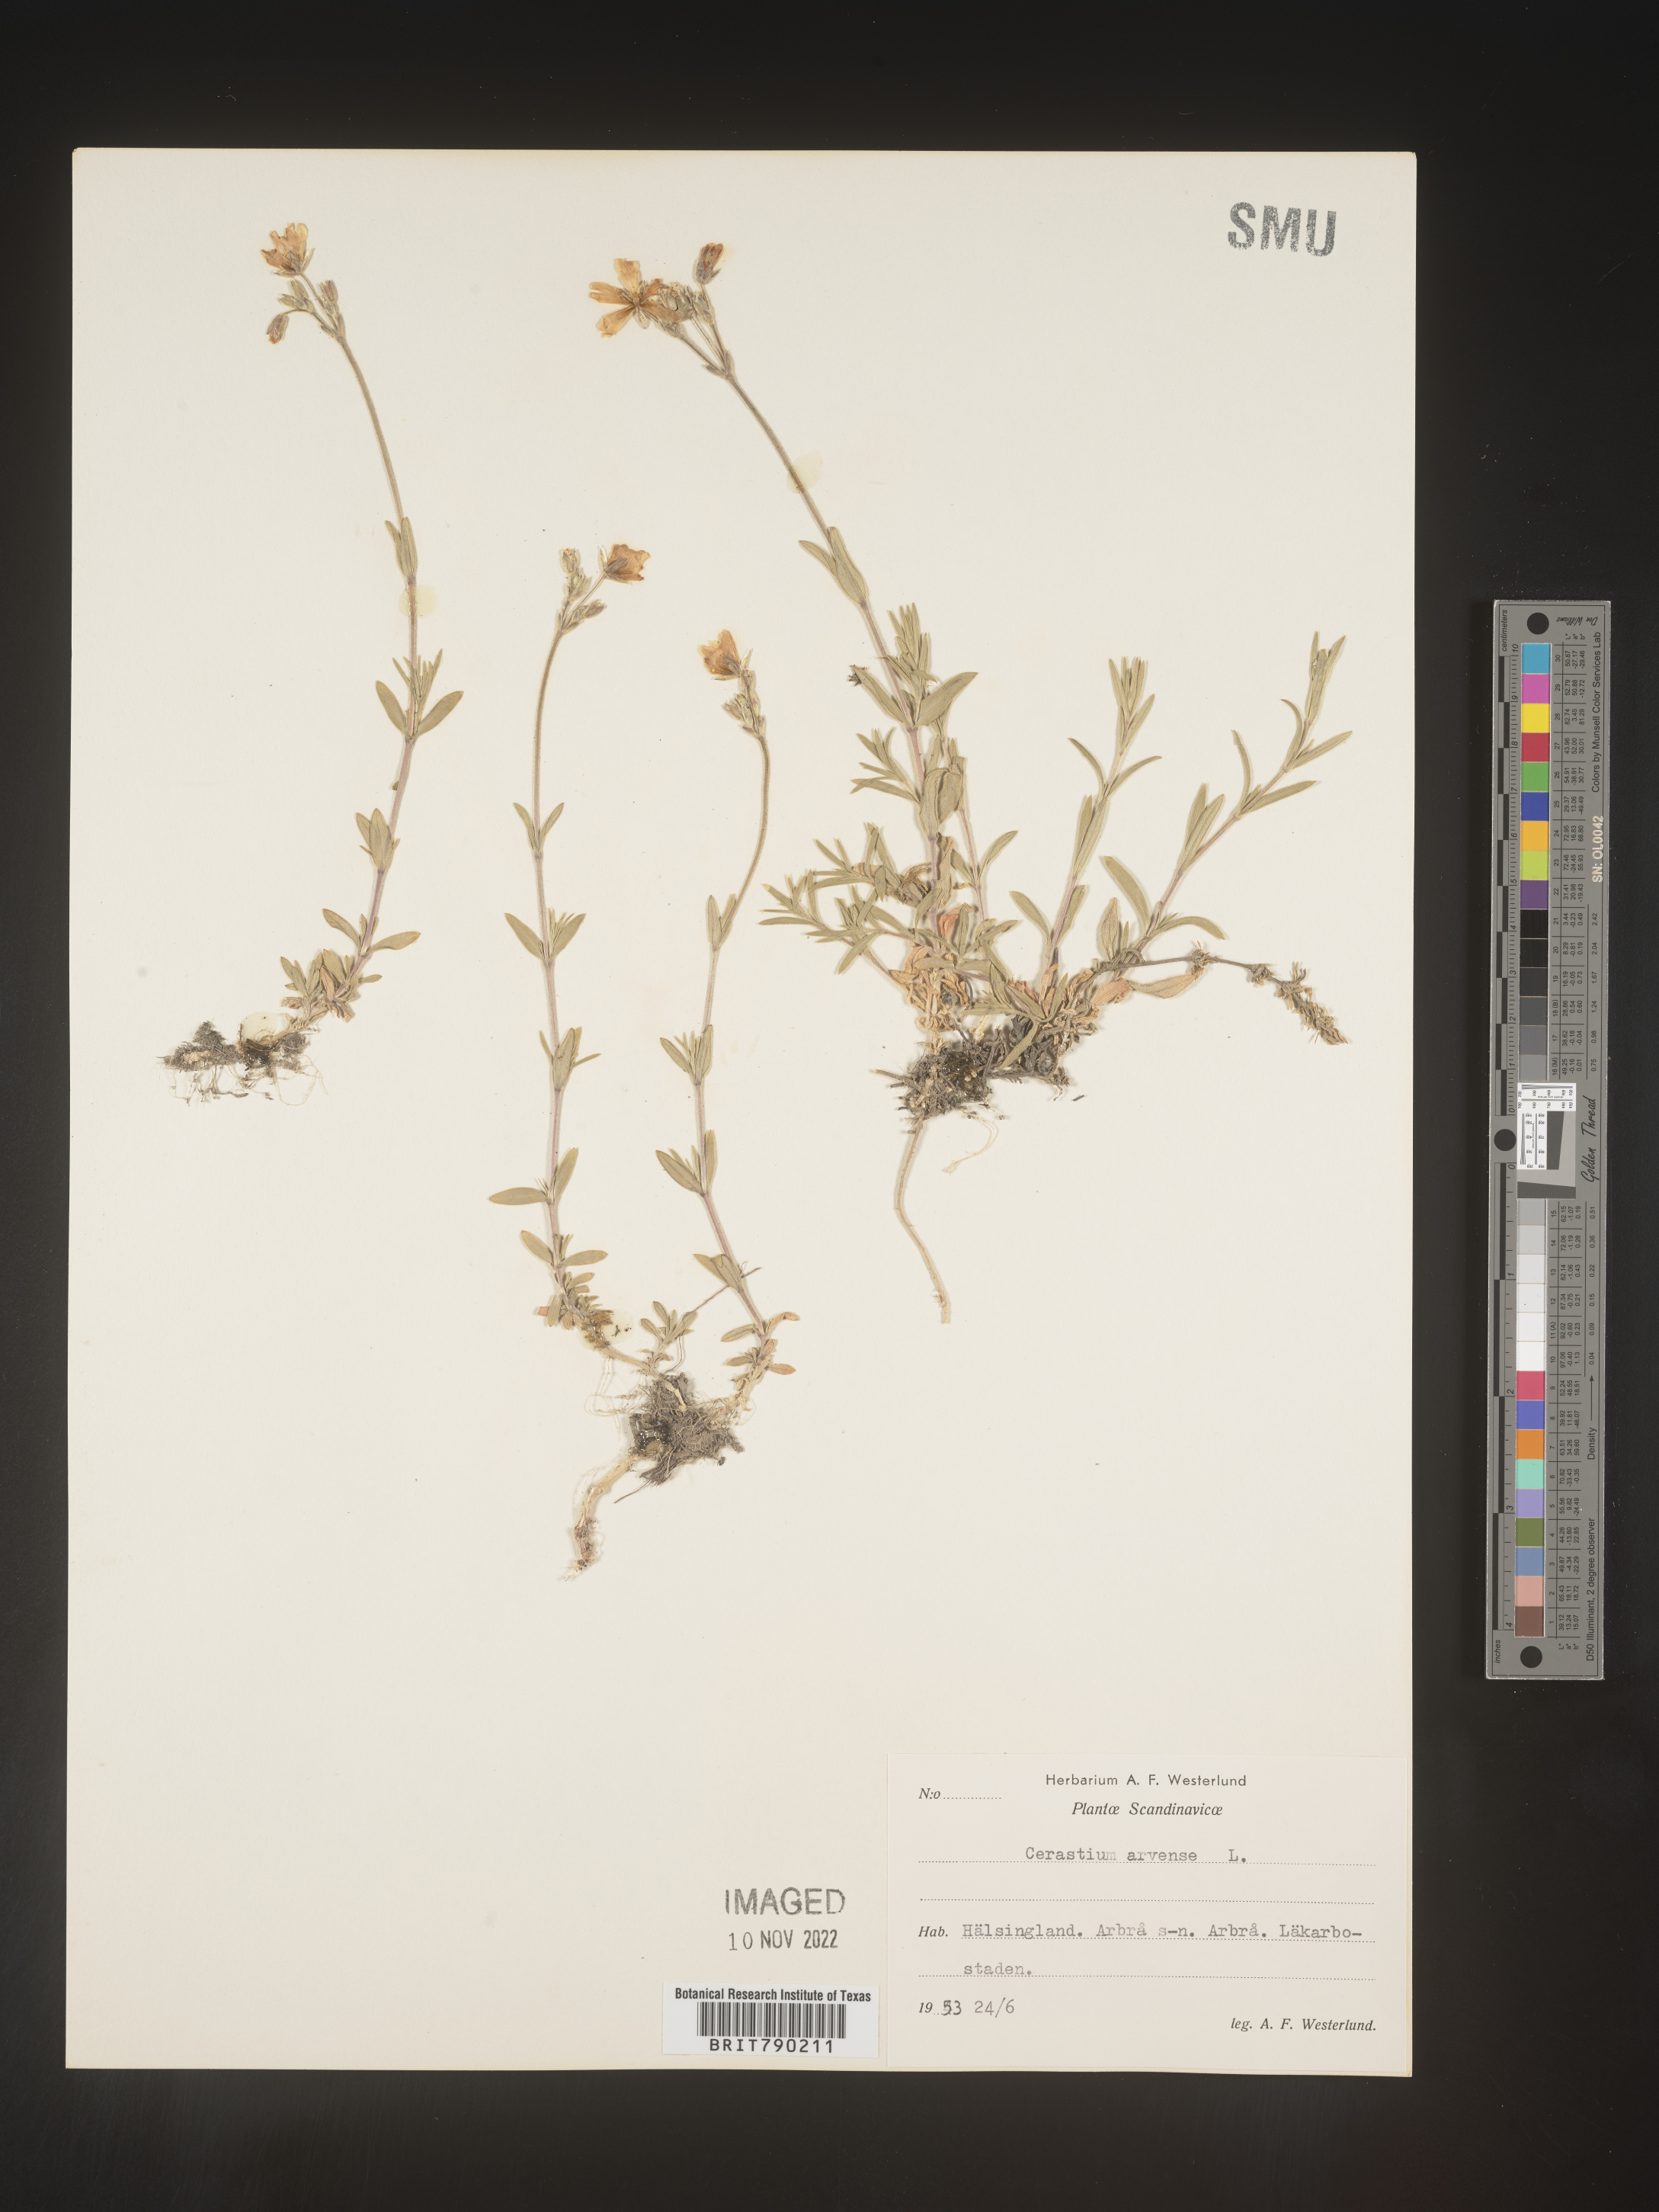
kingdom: Plantae
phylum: Tracheophyta
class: Magnoliopsida
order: Caryophyllales
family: Caryophyllaceae
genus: Cerastium
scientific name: Cerastium
